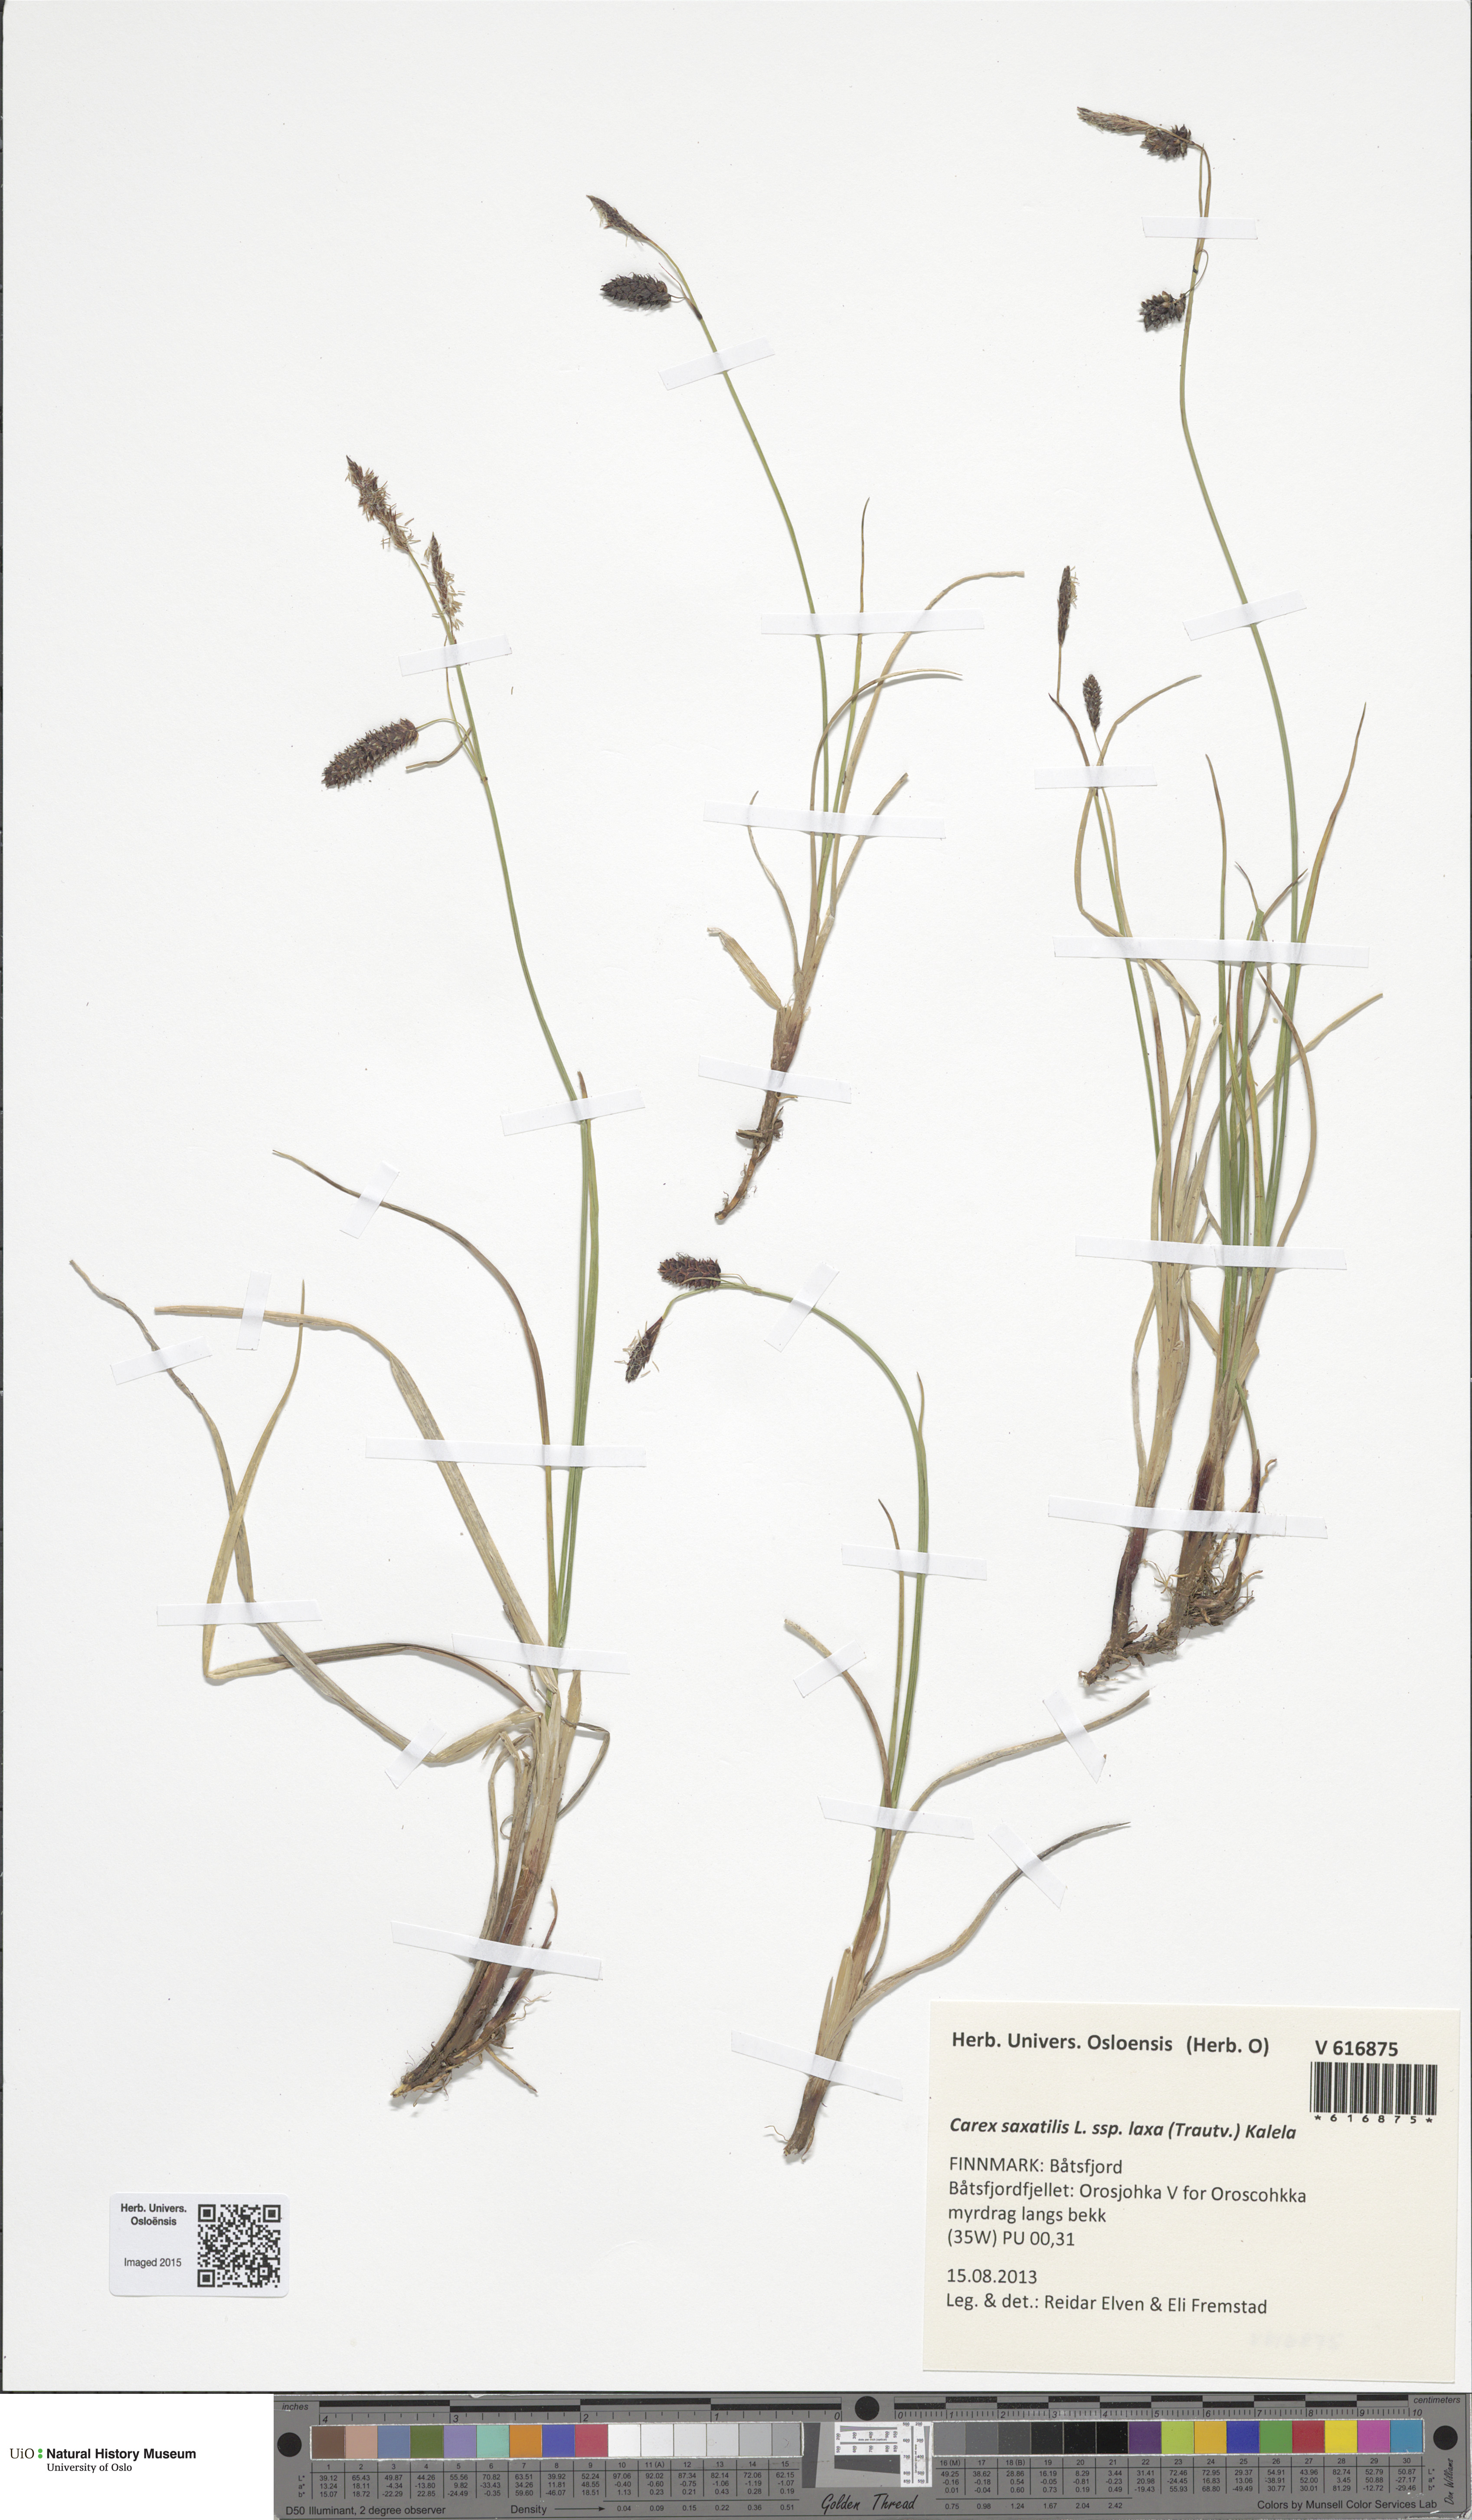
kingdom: Plantae
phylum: Tracheophyta
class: Liliopsida
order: Poales
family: Cyperaceae
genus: Carex
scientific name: Carex saxatilis
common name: Russet sedge
